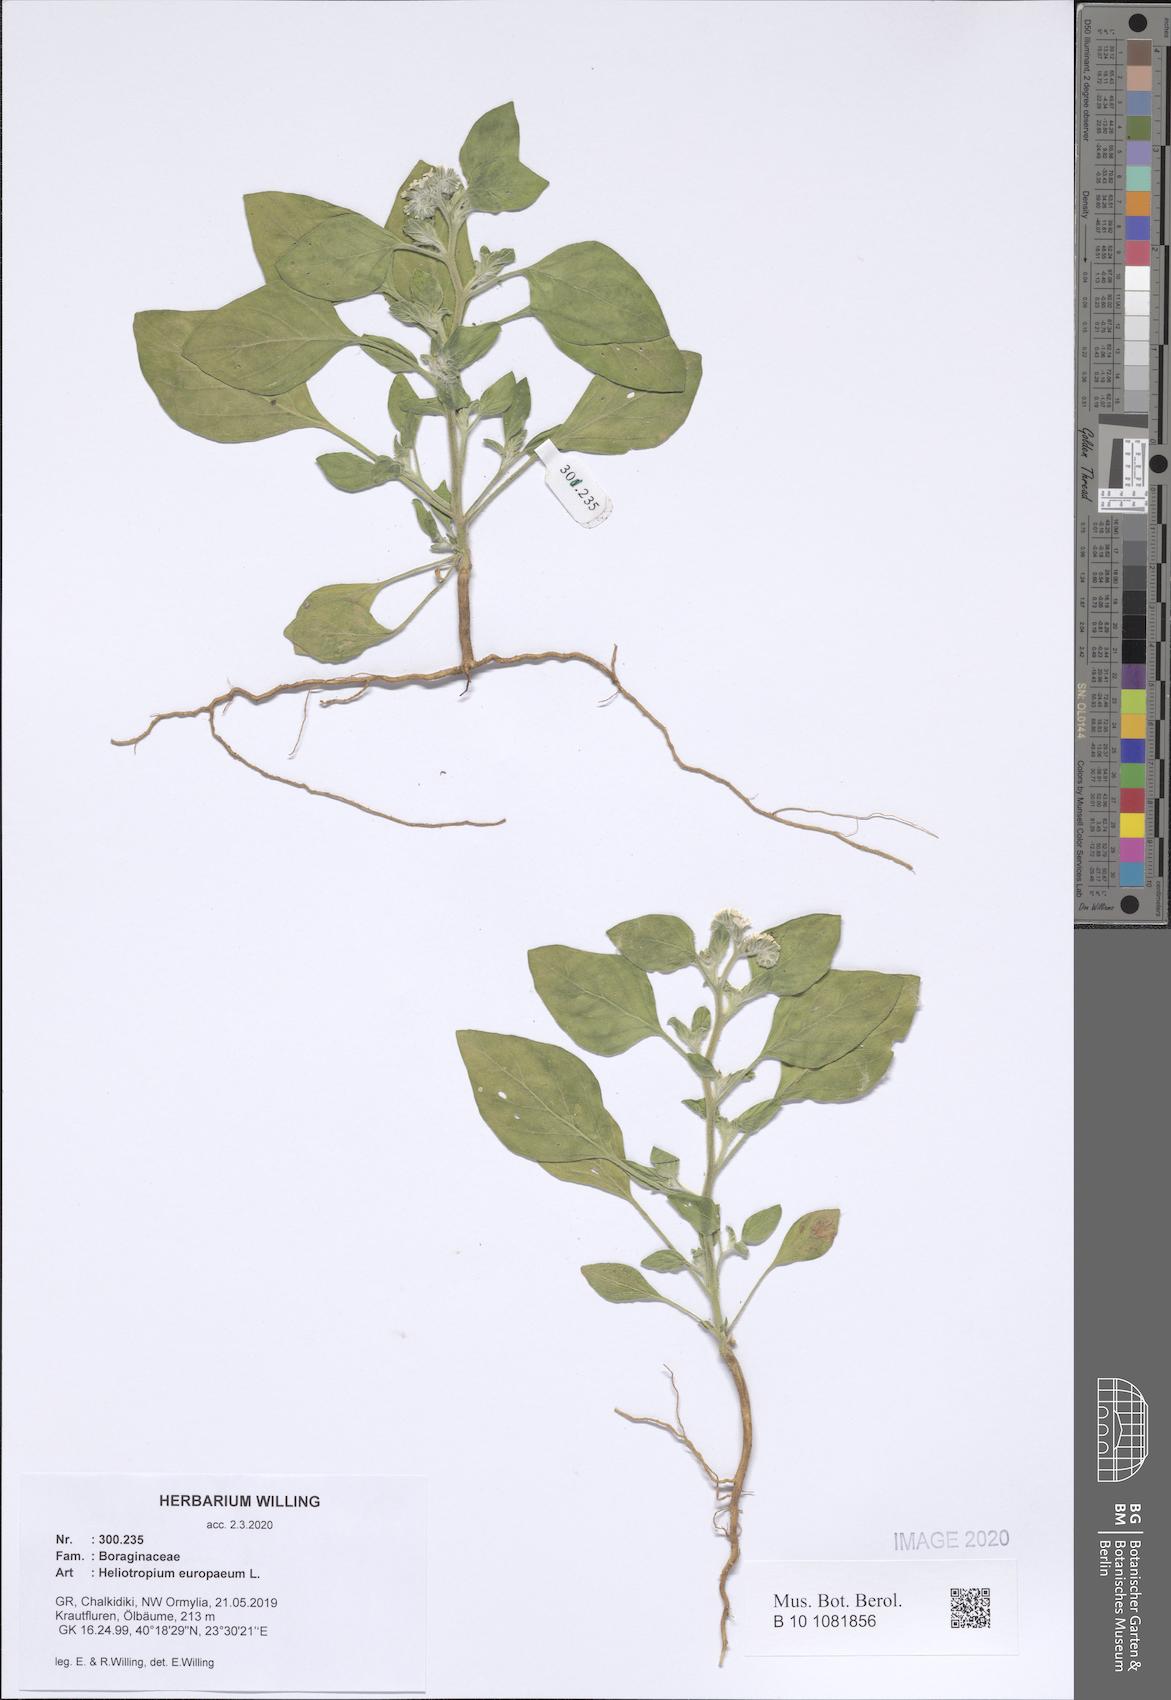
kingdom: Plantae
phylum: Tracheophyta
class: Magnoliopsida
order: Boraginales
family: Heliotropiaceae
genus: Heliotropium
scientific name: Heliotropium europaeum
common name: European heliotrope
